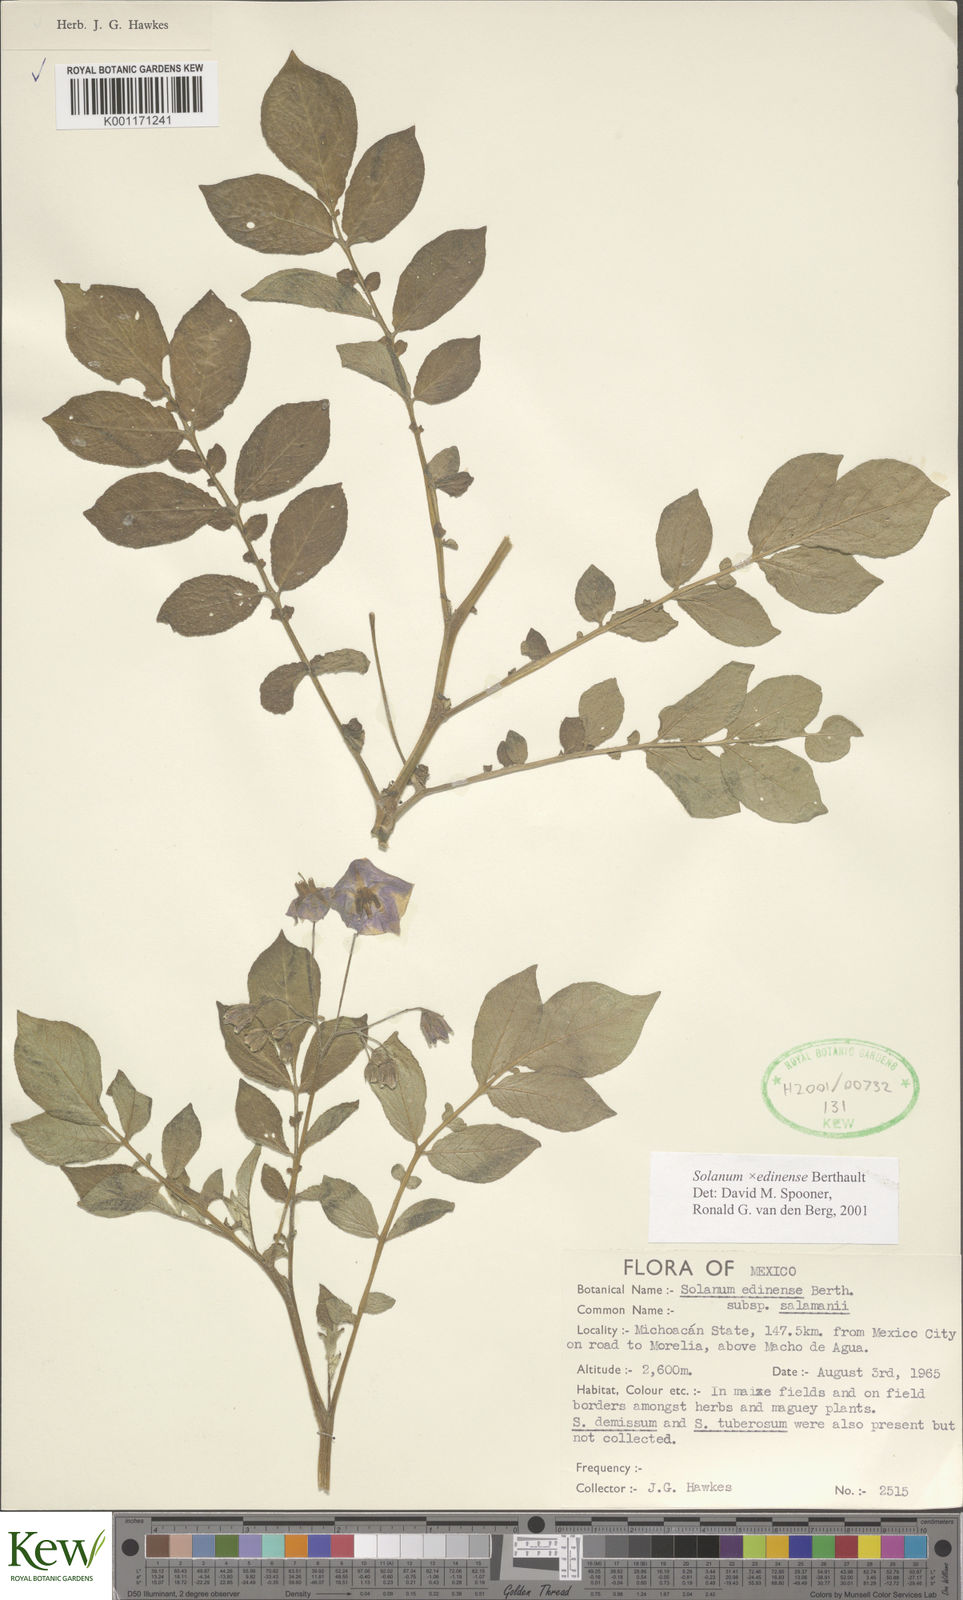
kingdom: Plantae
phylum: Tracheophyta
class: Magnoliopsida
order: Solanales
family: Solanaceae
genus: Solanum
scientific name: Solanum edinense
